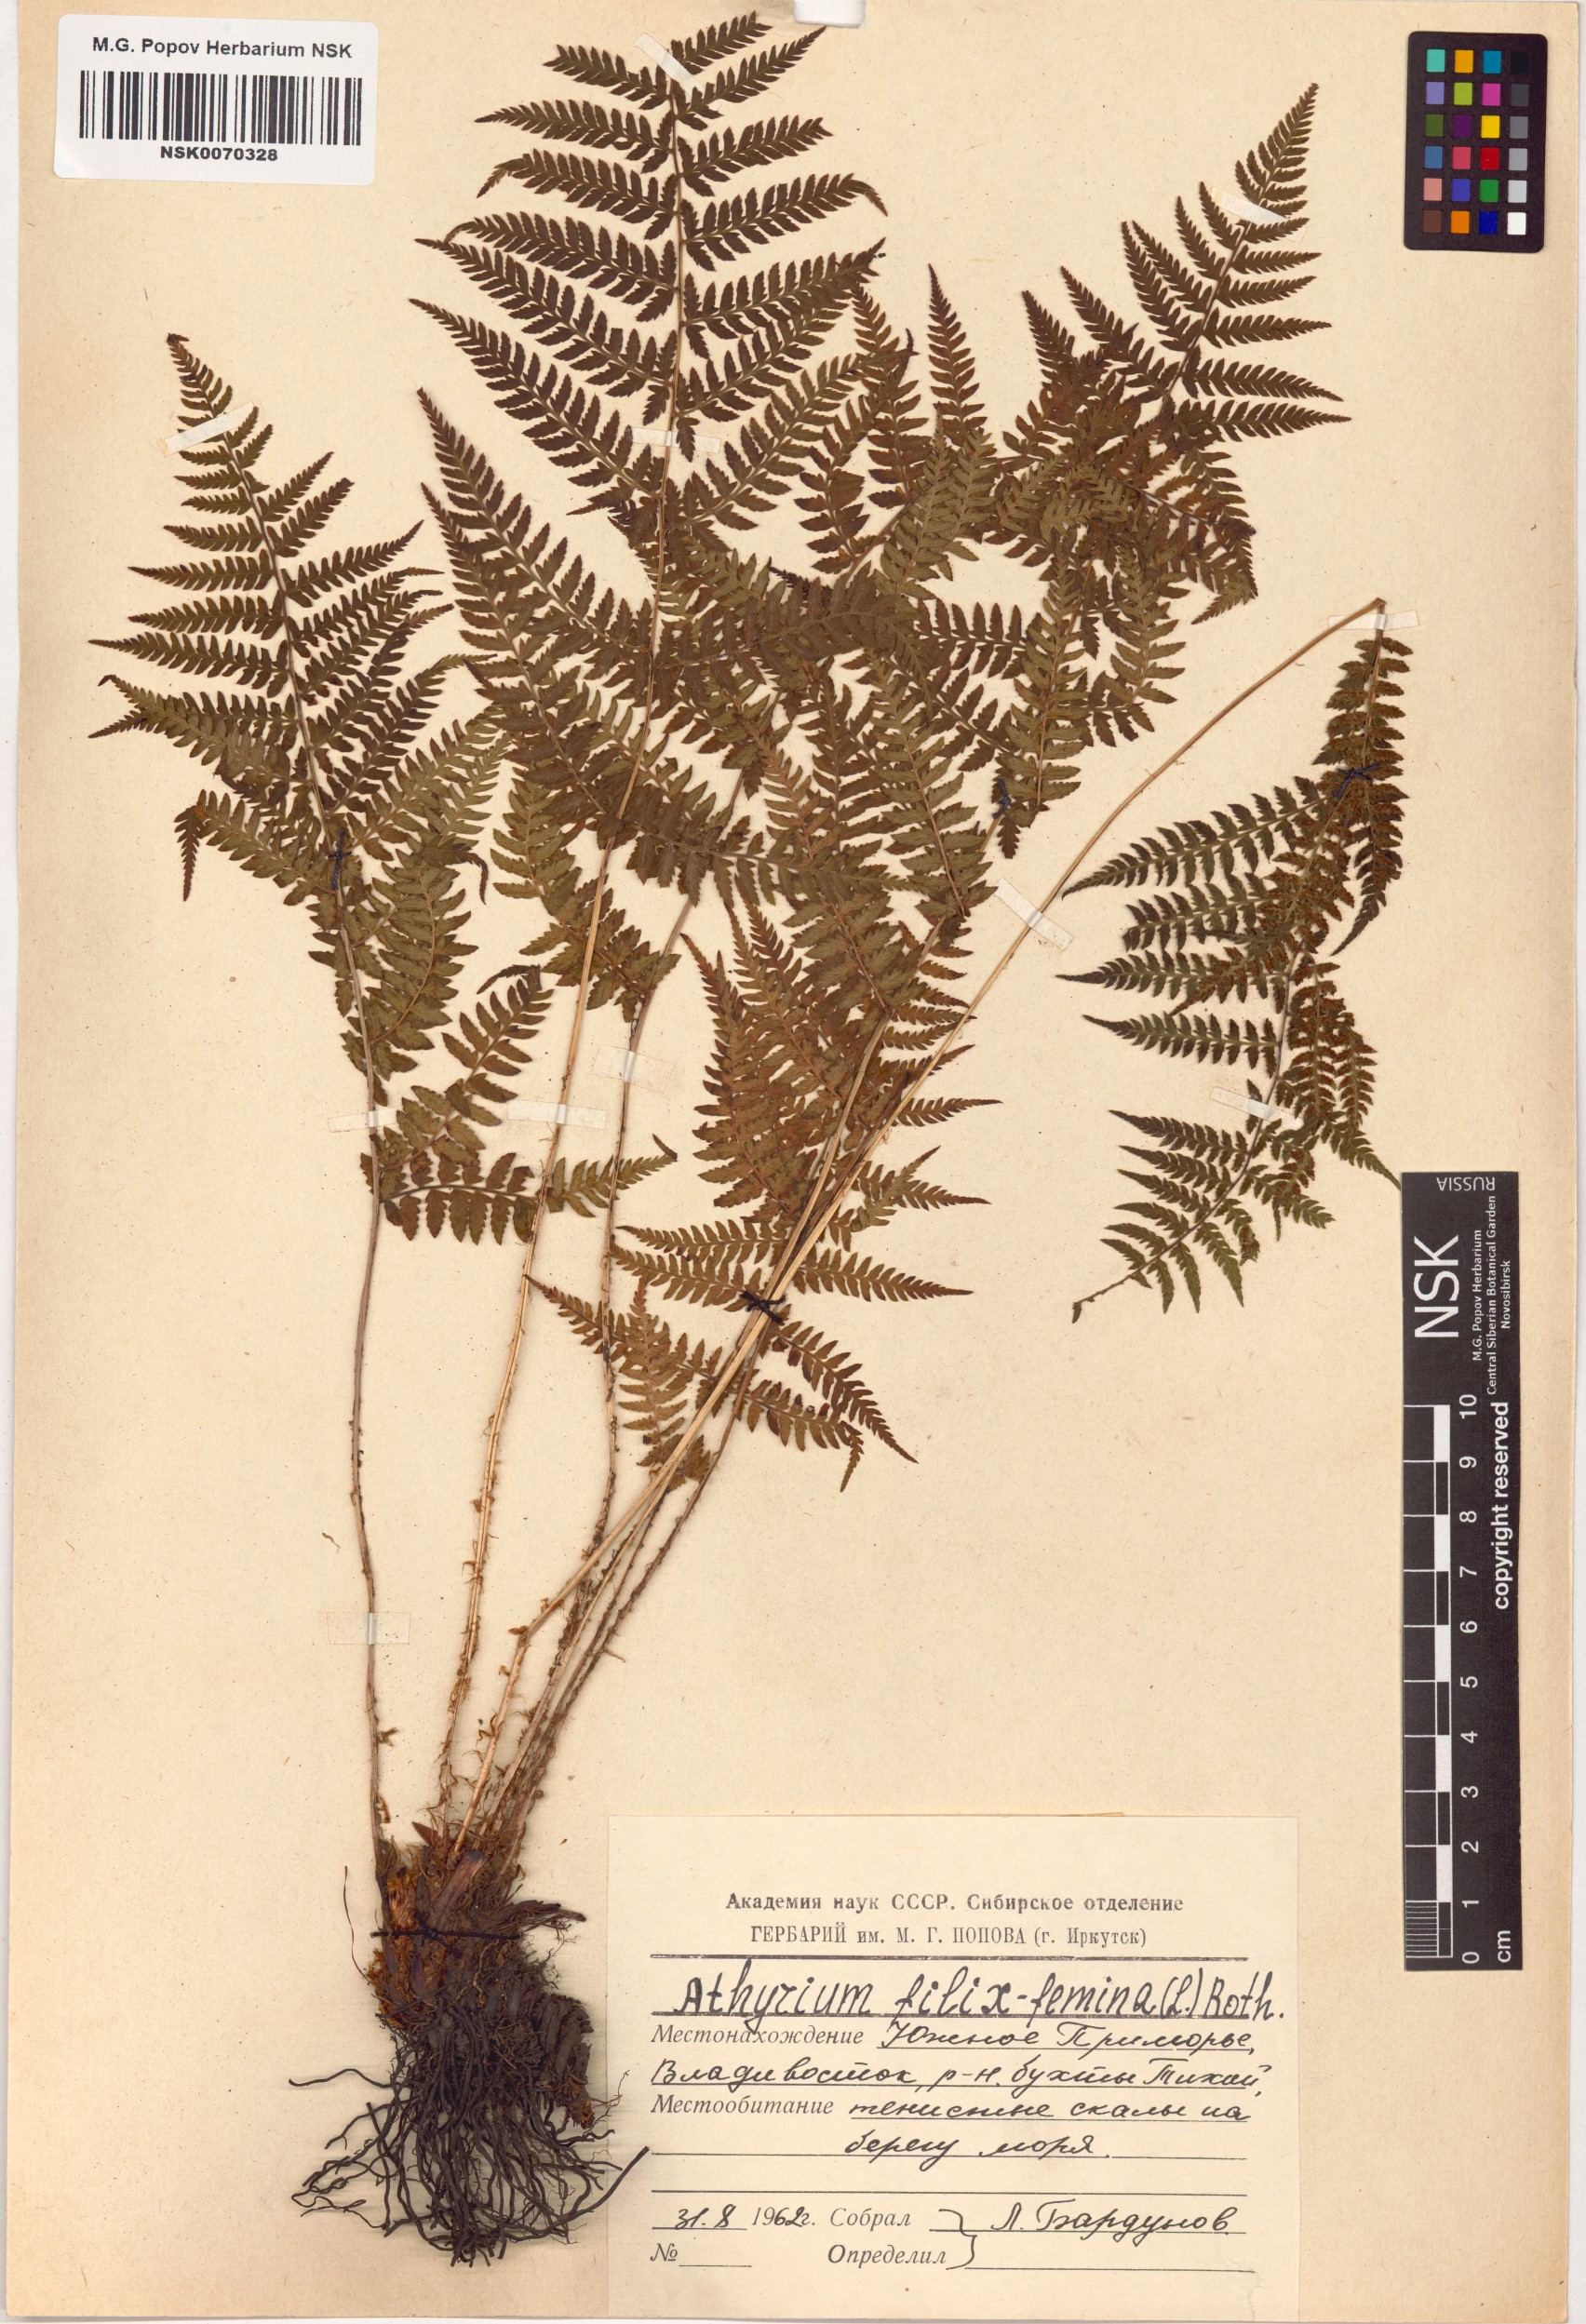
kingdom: Plantae
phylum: Tracheophyta
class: Polypodiopsida
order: Polypodiales
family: Athyriaceae
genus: Athyrium
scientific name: Athyrium filix-femina
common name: Lady fern
